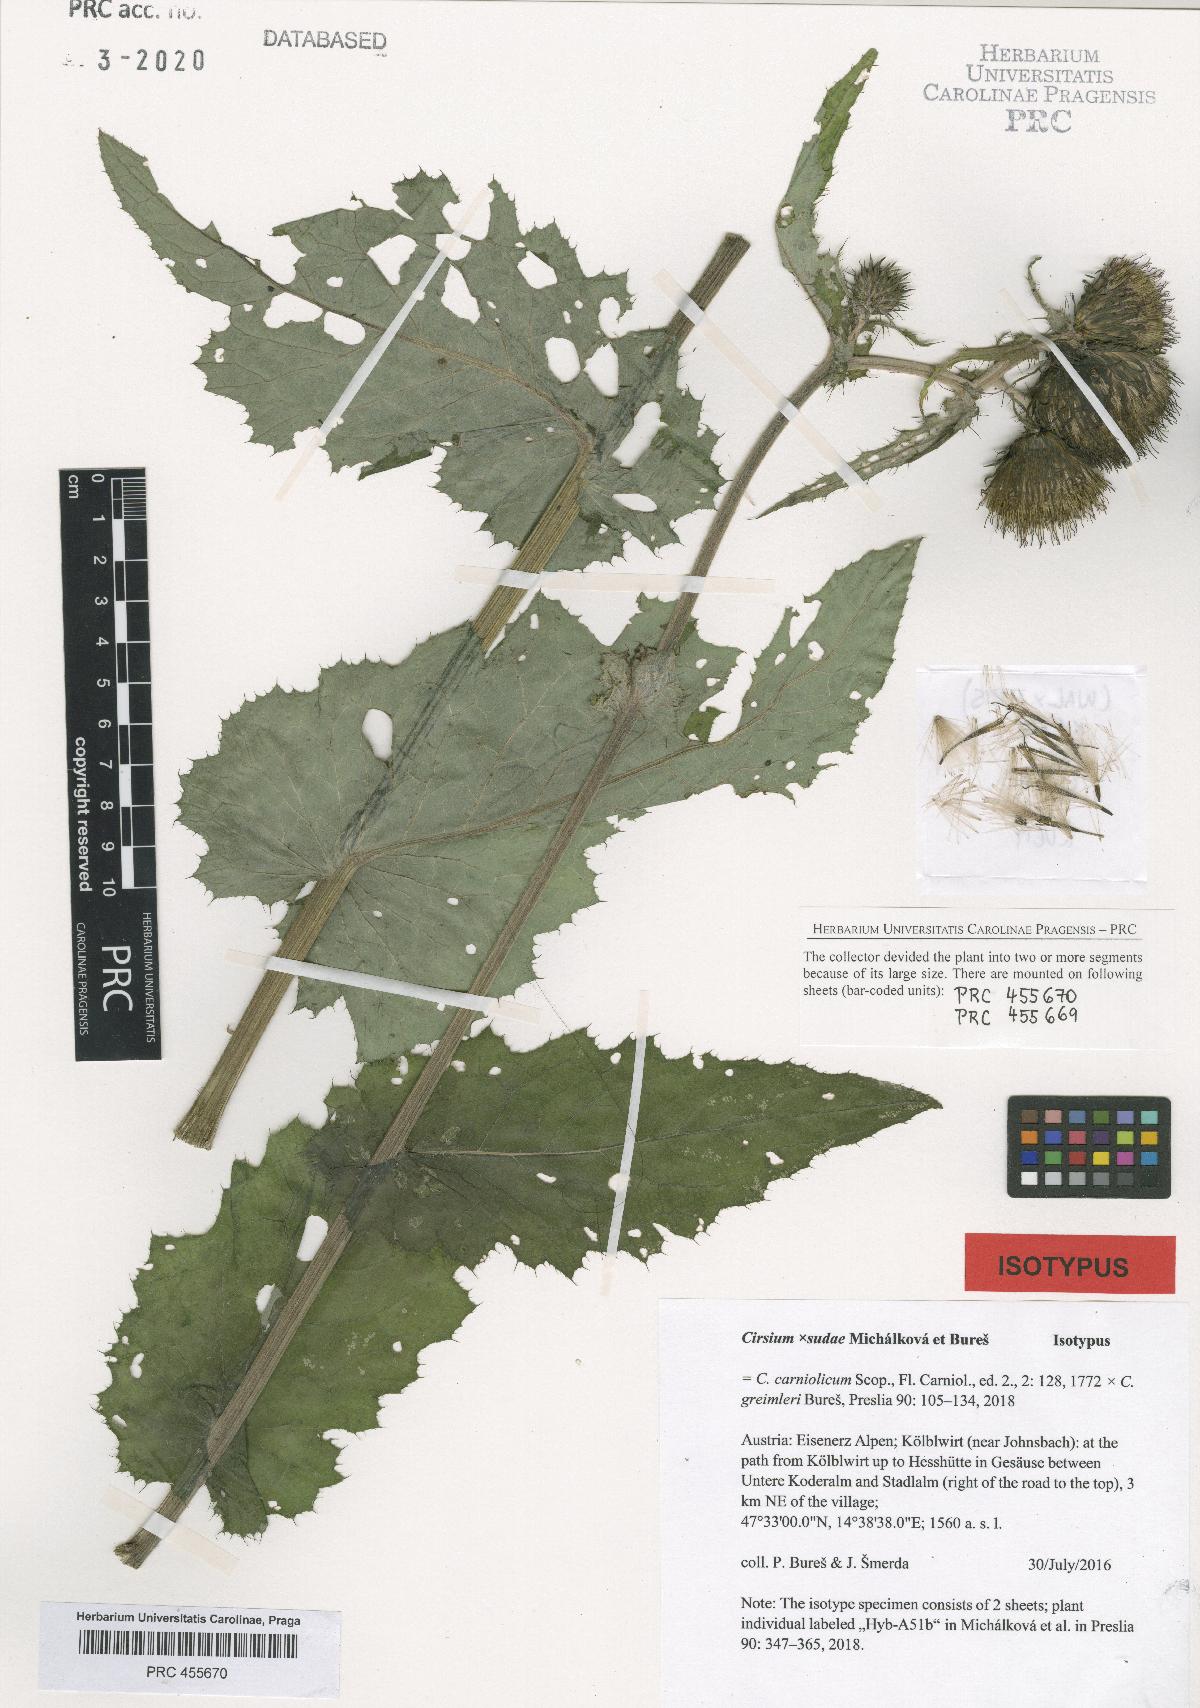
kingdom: Plantae
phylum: Tracheophyta
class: Magnoliopsida
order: Asterales
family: Asteraceae
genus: Cirsium
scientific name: Cirsium sudae
